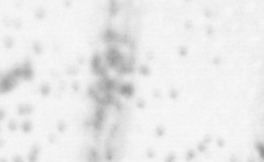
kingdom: Animalia
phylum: Chordata
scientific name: Chordata
